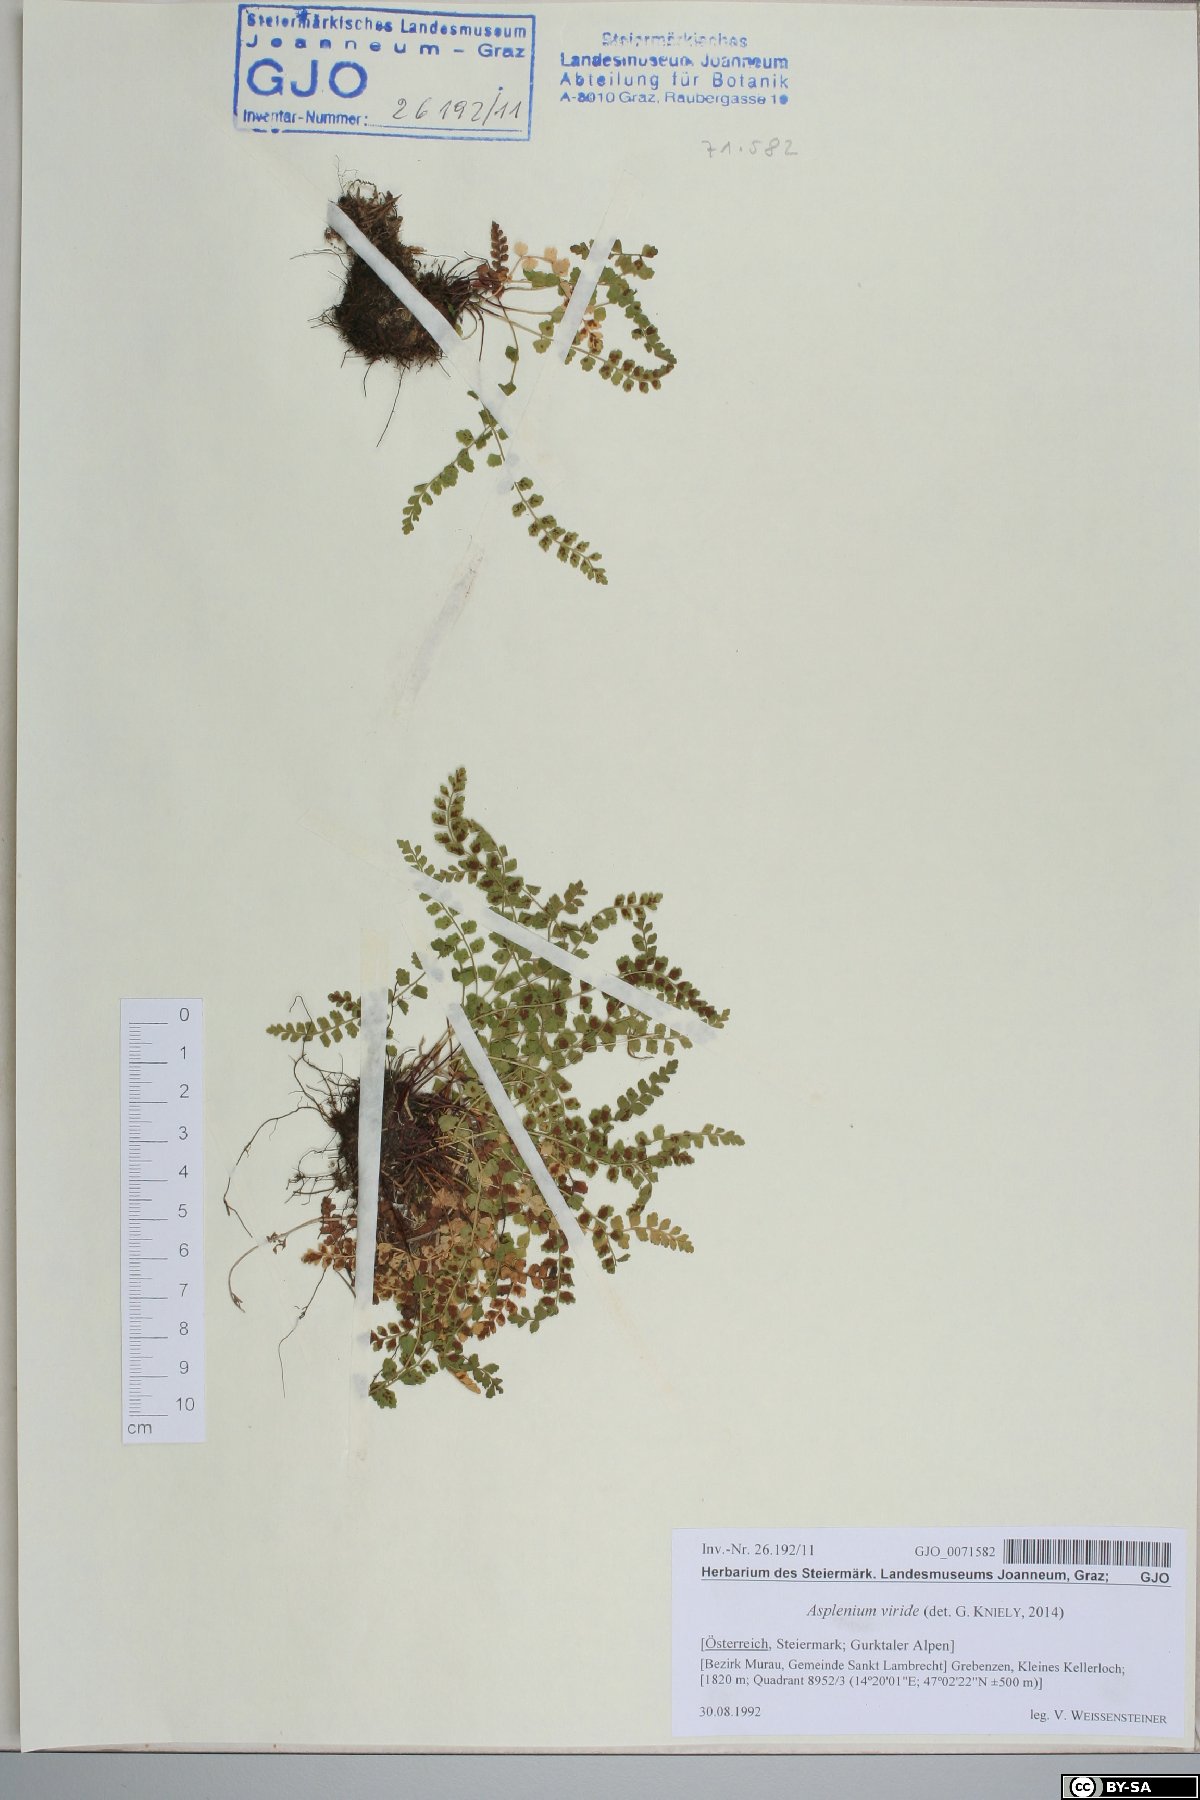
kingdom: Plantae
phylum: Tracheophyta
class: Polypodiopsida
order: Polypodiales
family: Aspleniaceae
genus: Asplenium
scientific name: Asplenium viride
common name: Green spleenwort
